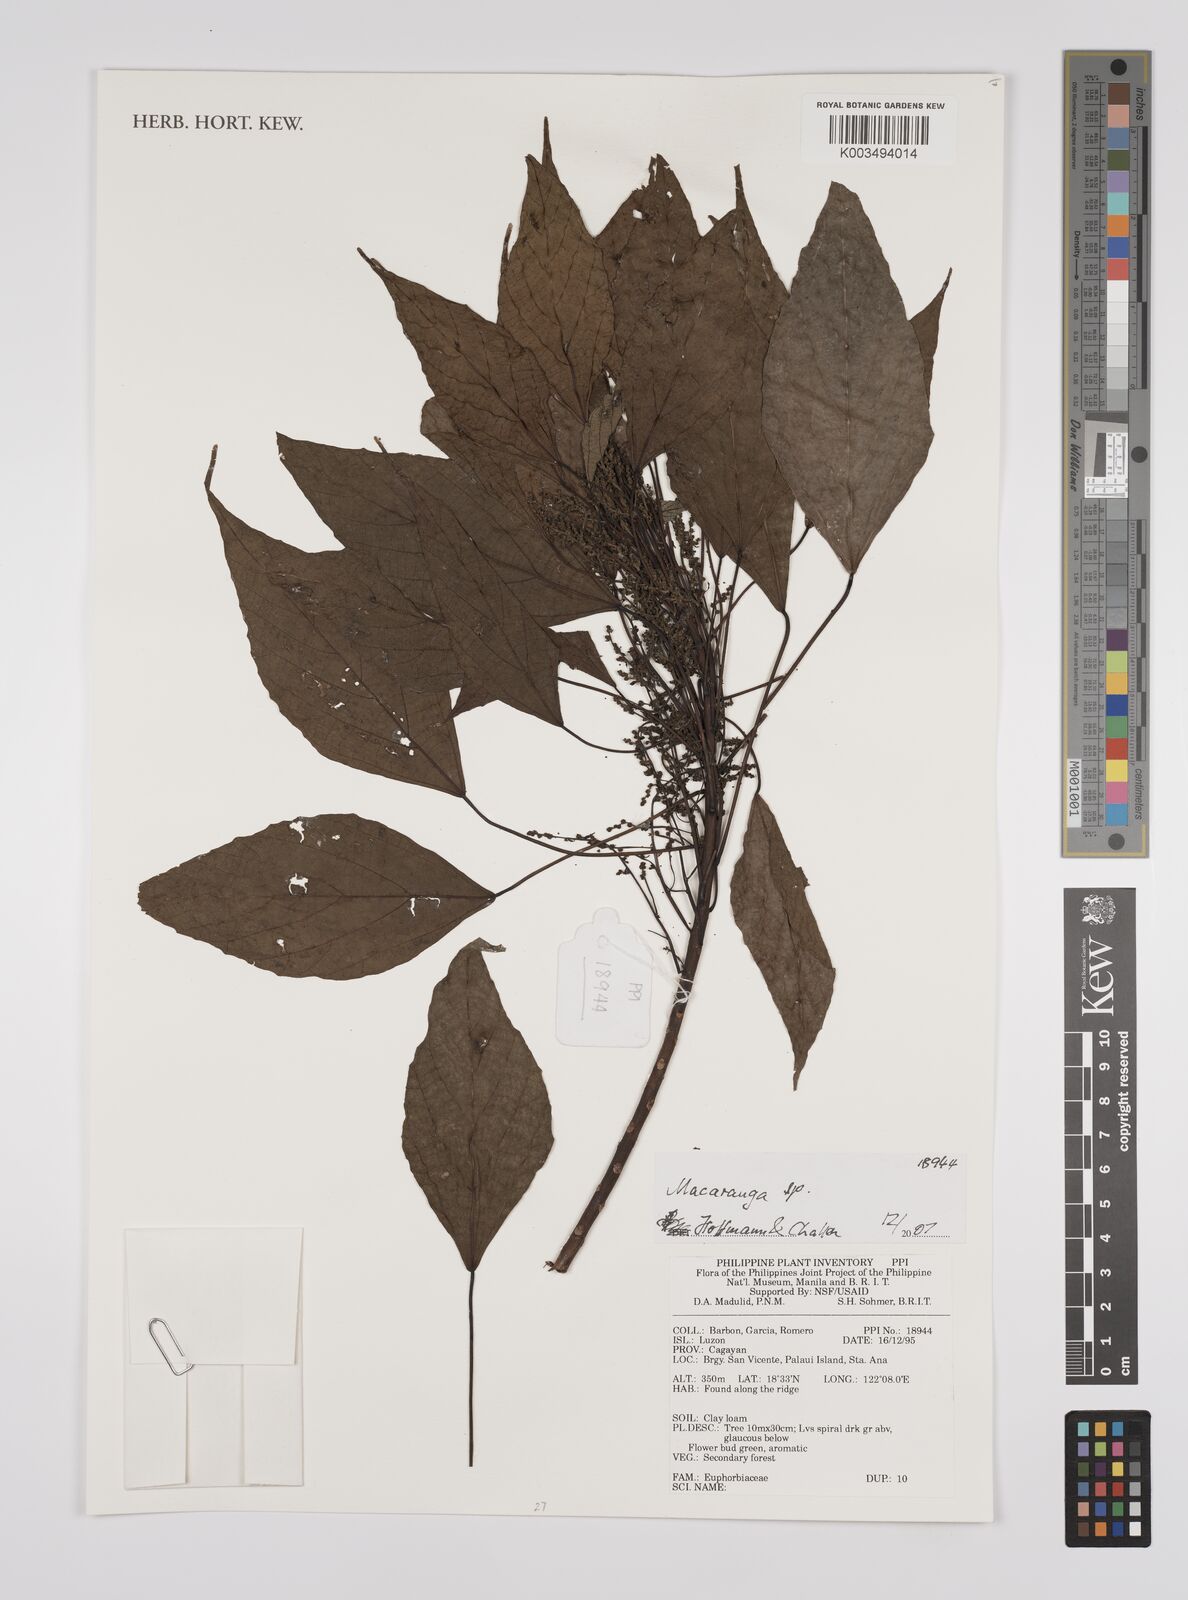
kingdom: Plantae
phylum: Tracheophyta
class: Magnoliopsida
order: Malpighiales
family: Euphorbiaceae
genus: Macaranga
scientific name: Macaranga
